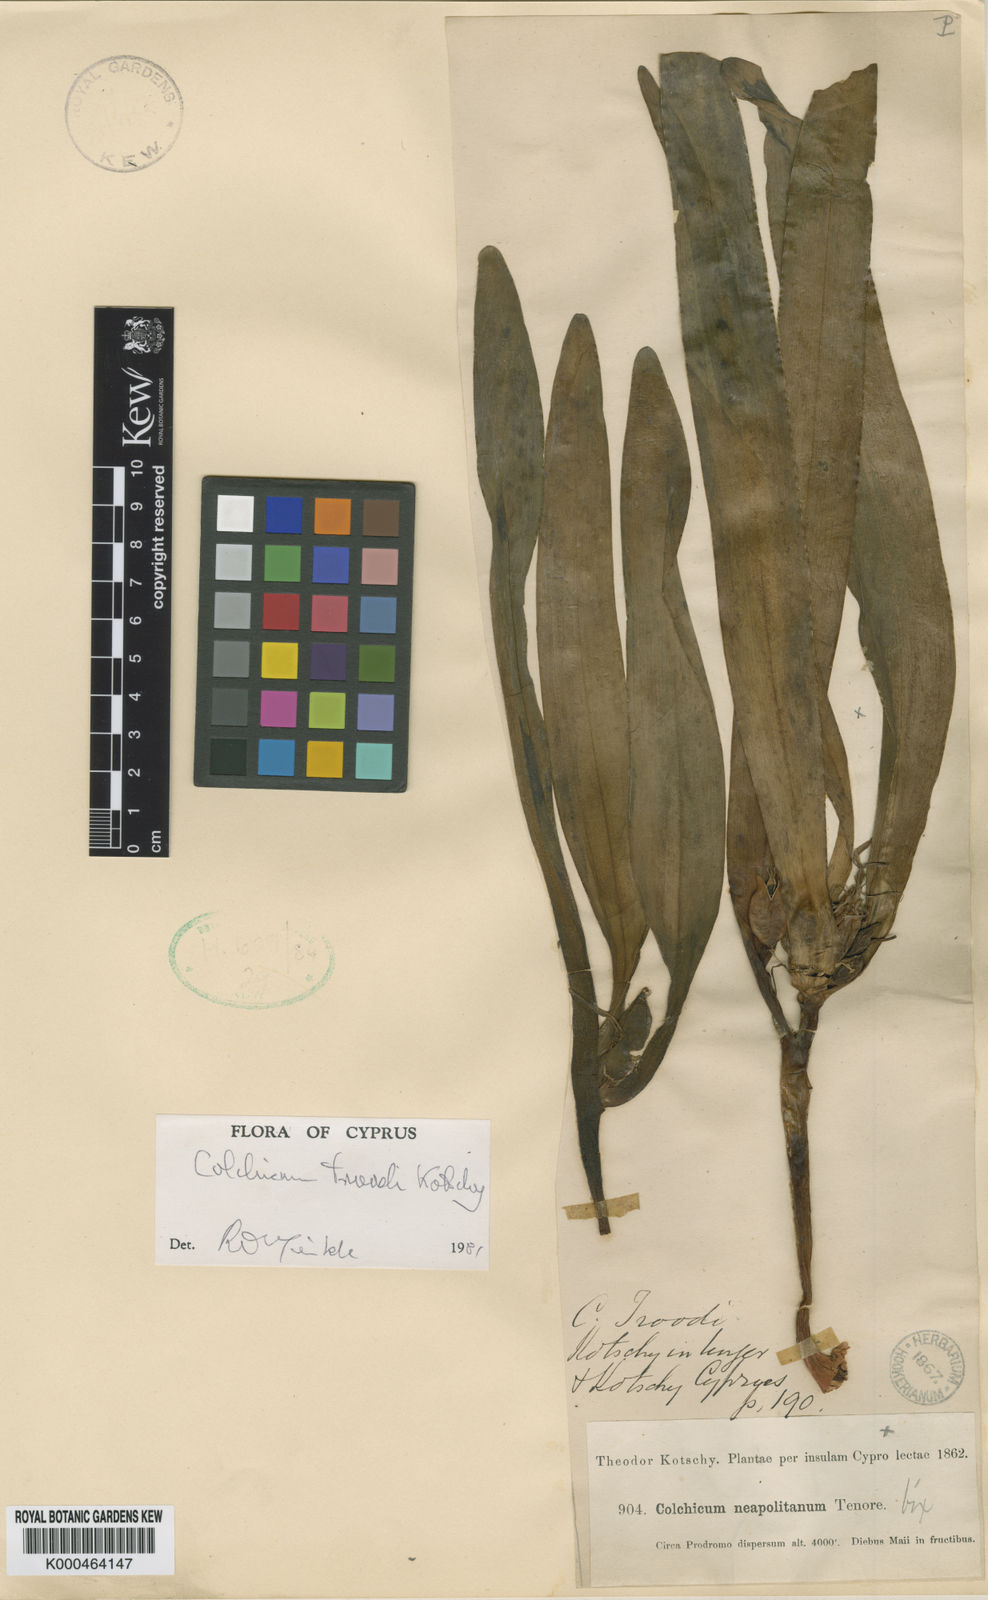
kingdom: Plantae
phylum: Tracheophyta
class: Liliopsida
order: Liliales
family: Colchicaceae
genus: Colchicum
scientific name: Colchicum troodi
